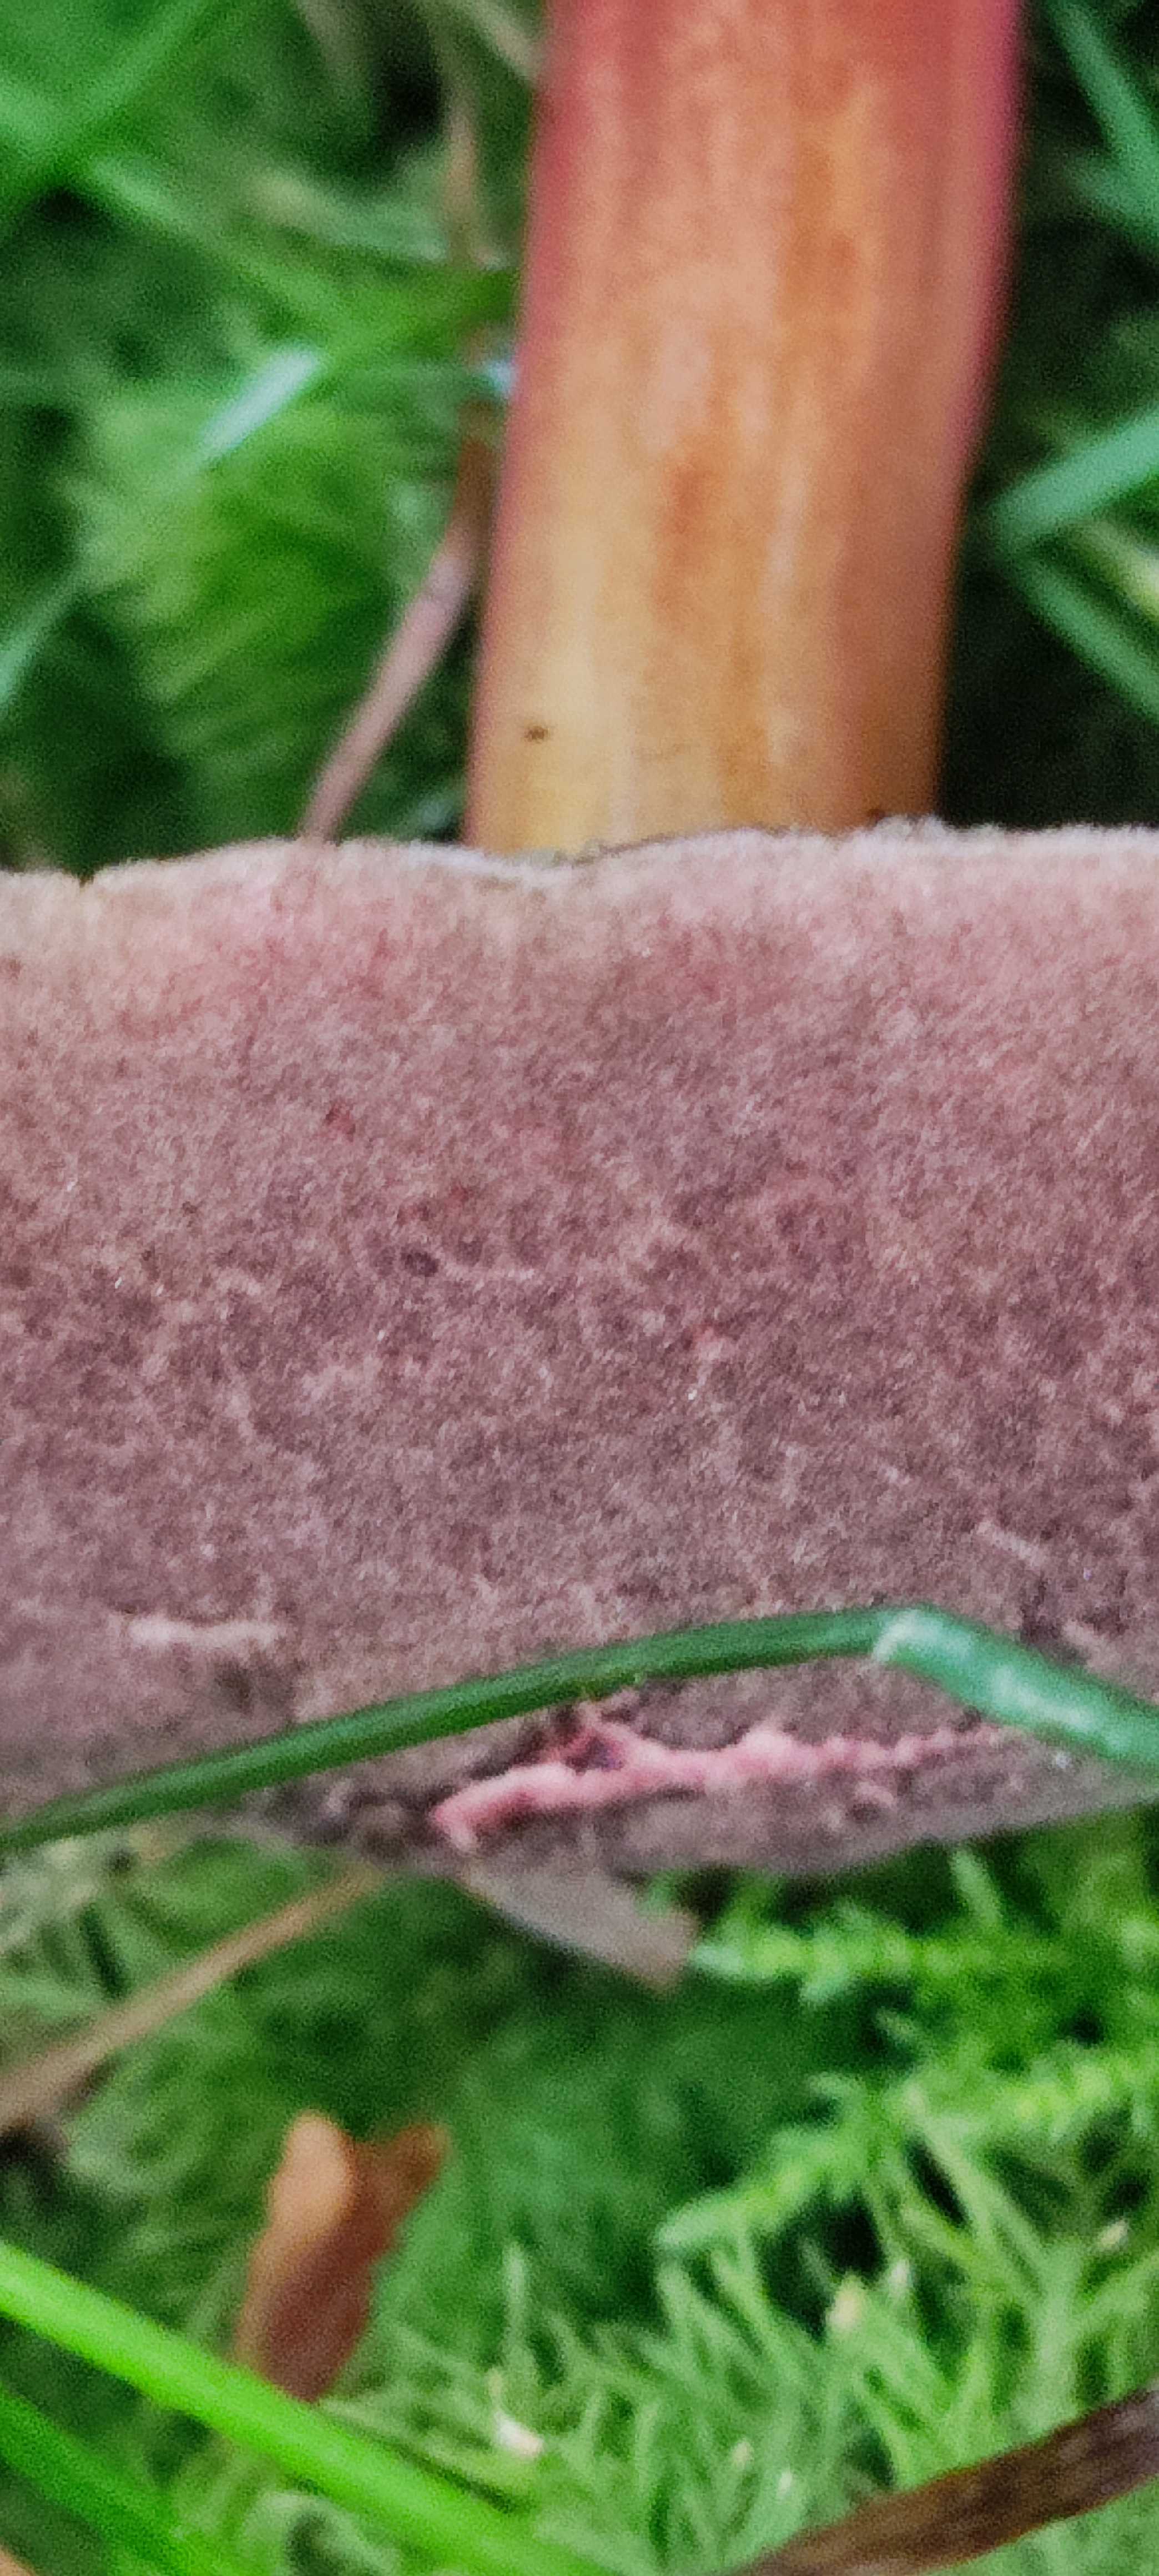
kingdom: Fungi
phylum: Basidiomycota
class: Agaricomycetes
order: Boletales
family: Boletaceae
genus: Xerocomellus
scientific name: Xerocomellus chrysenteron
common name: rødsprukken rørhat
